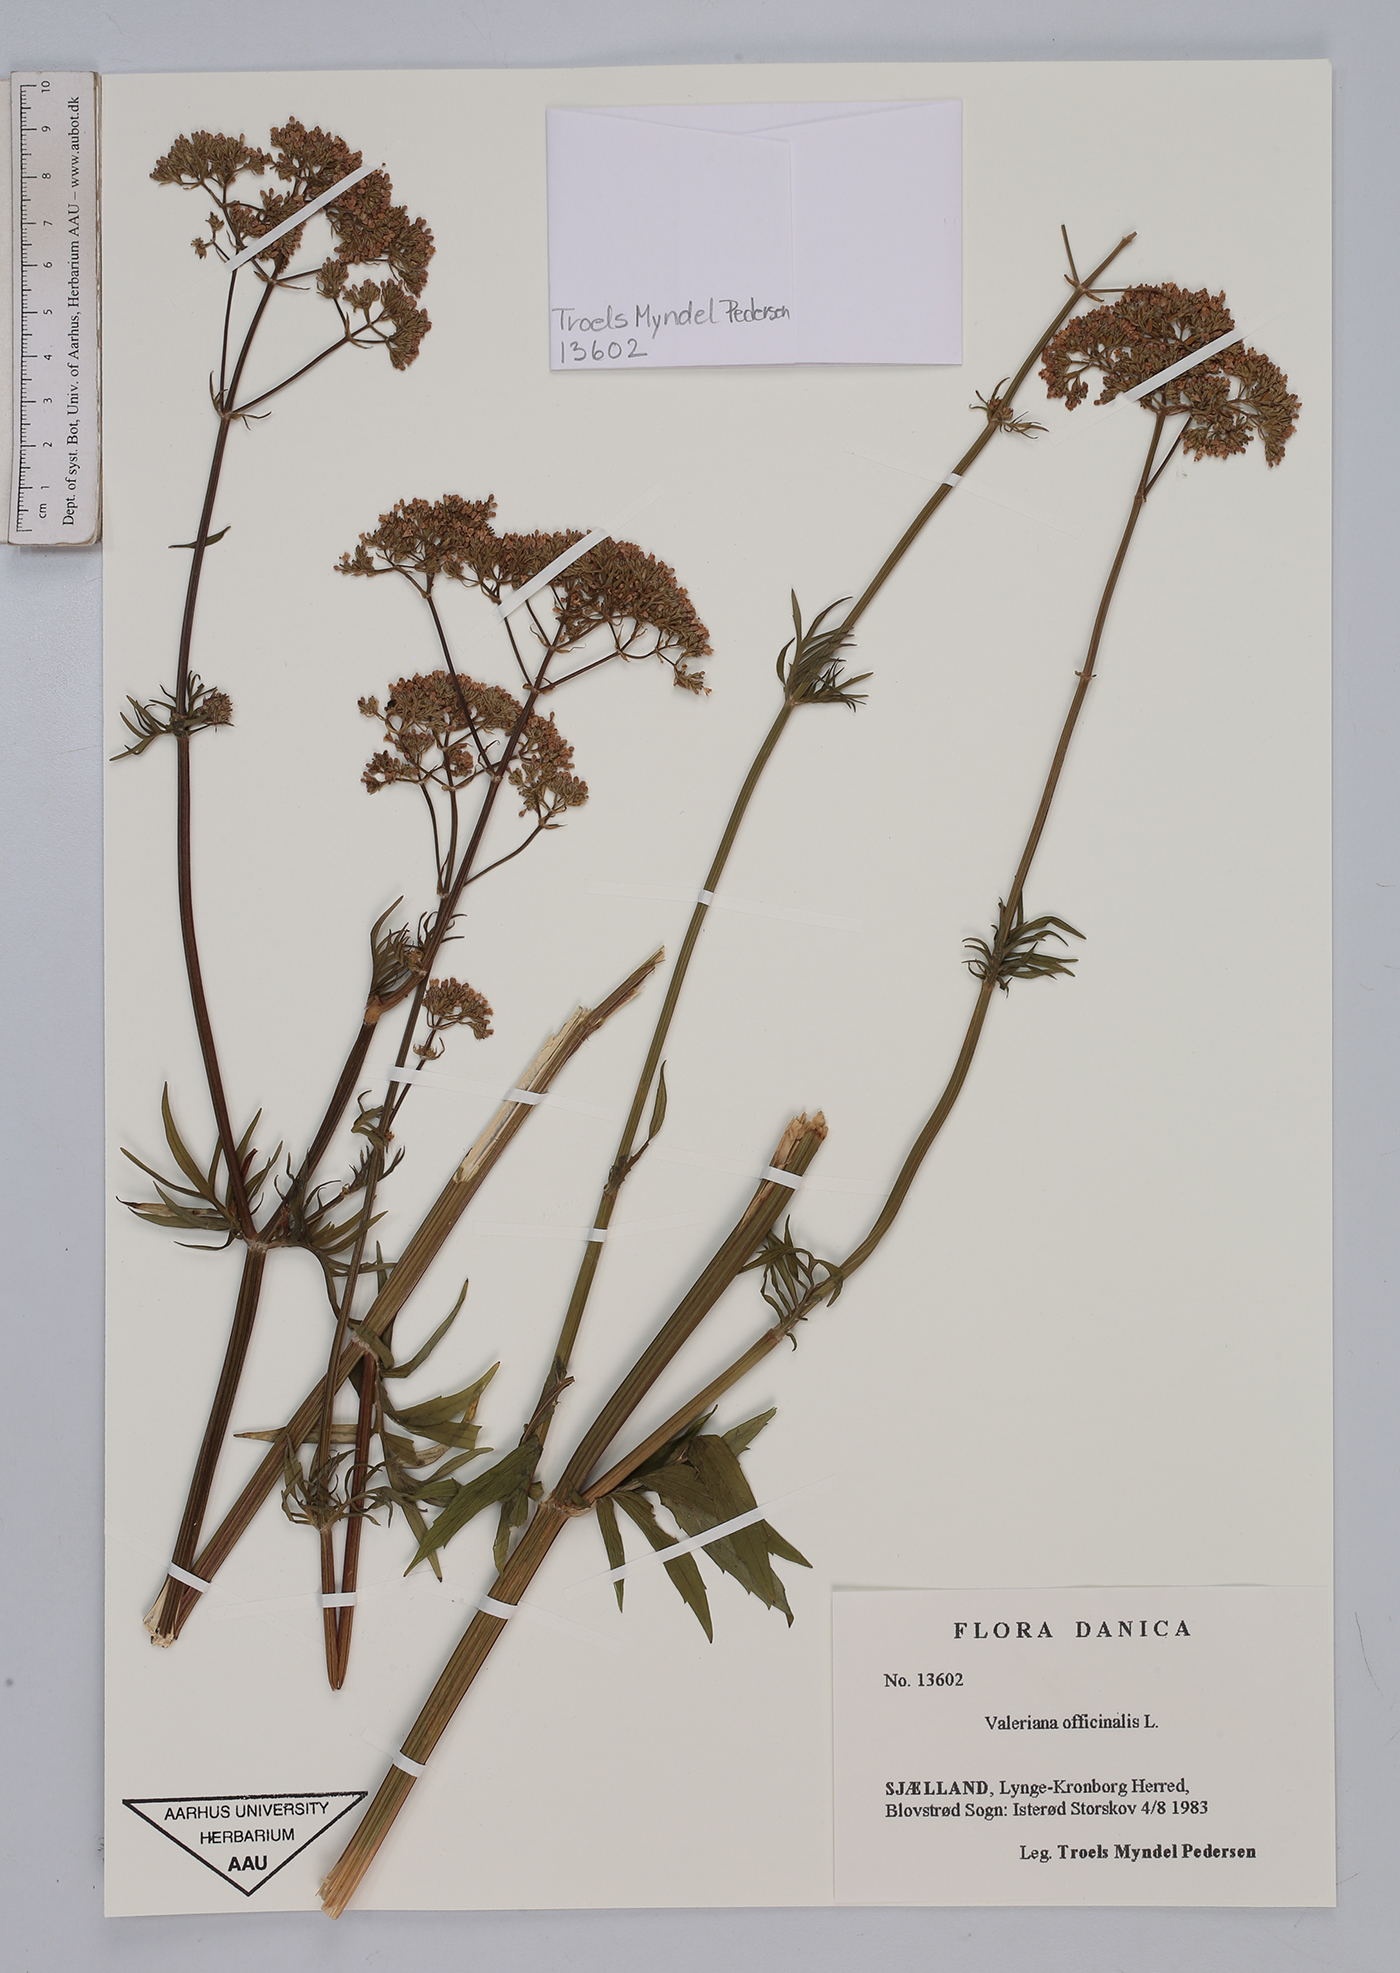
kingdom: Plantae
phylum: Tracheophyta
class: Magnoliopsida
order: Dipsacales
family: Caprifoliaceae
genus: Valeriana
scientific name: Valeriana officinalis
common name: Common valerian
